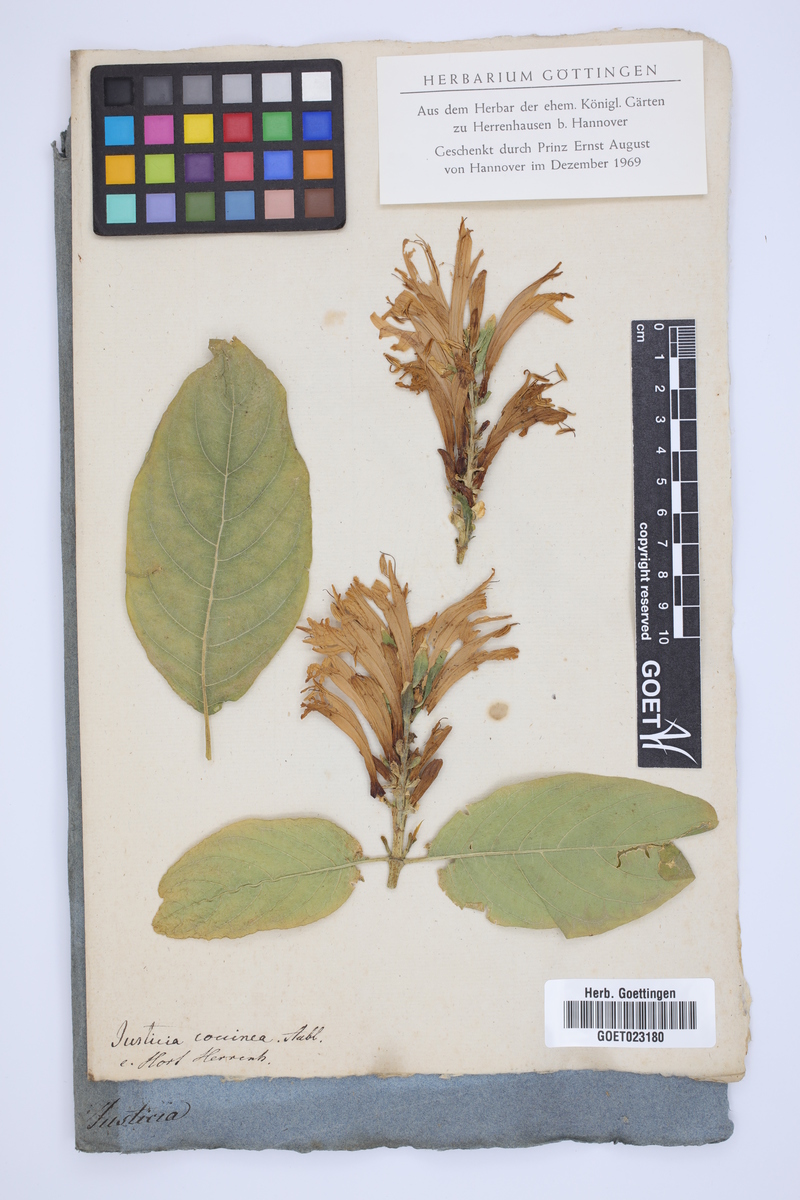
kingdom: Plantae
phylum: Tracheophyta
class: Magnoliopsida
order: Lamiales
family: Acanthaceae
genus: Pachystachys
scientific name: Pachystachys coccinea
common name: Cardinal's-guard
